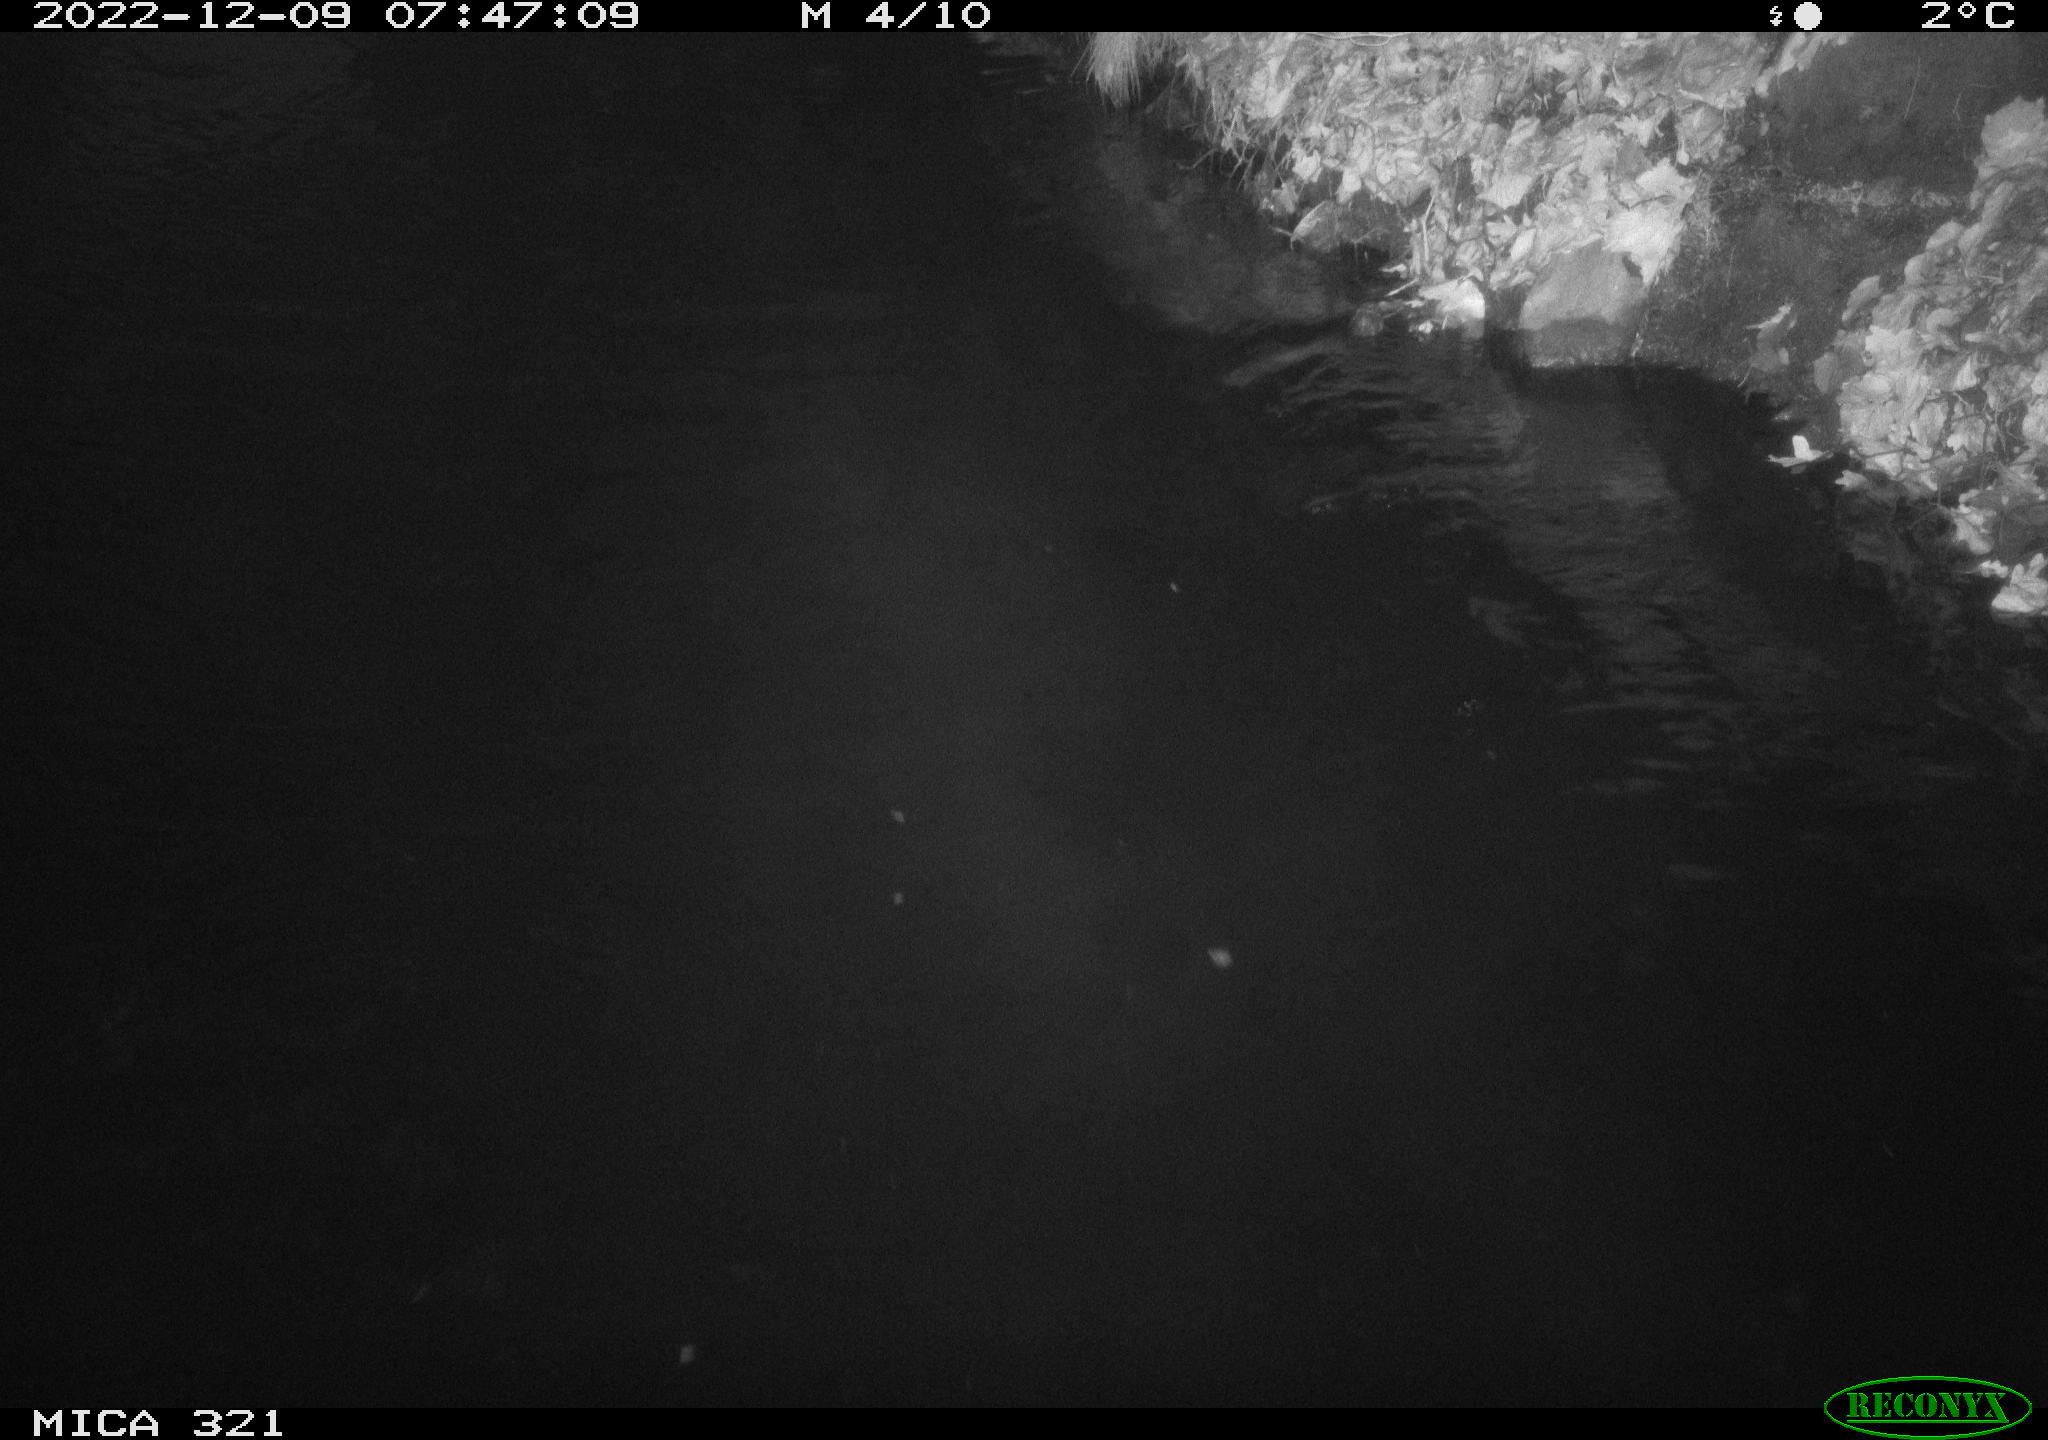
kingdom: Animalia
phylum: Chordata
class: Aves
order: Anseriformes
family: Anatidae
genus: Anas
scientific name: Anas
